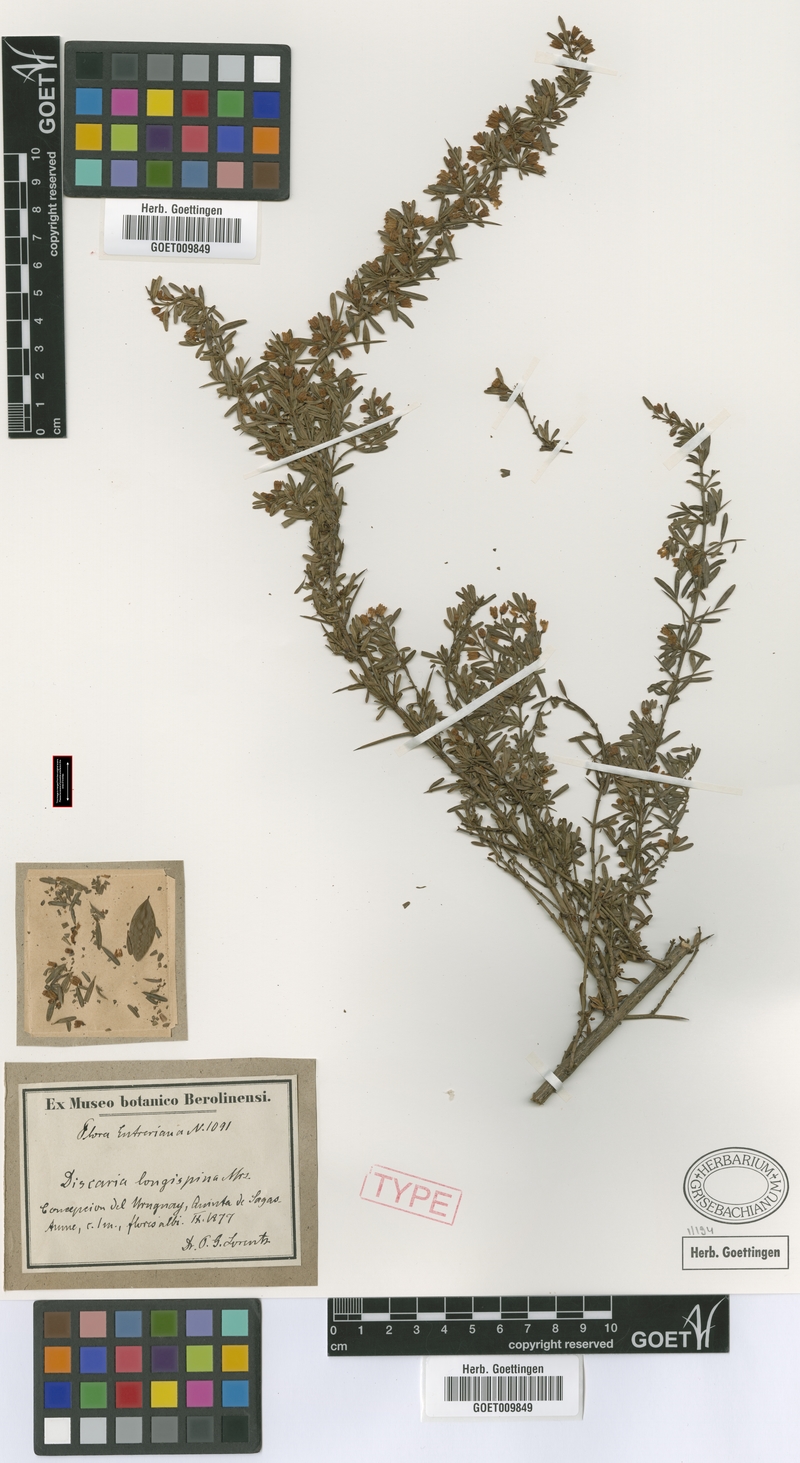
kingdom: Plantae
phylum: Tracheophyta
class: Magnoliopsida
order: Rosales
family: Rhamnaceae
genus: Discaria
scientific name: Discaria americana
